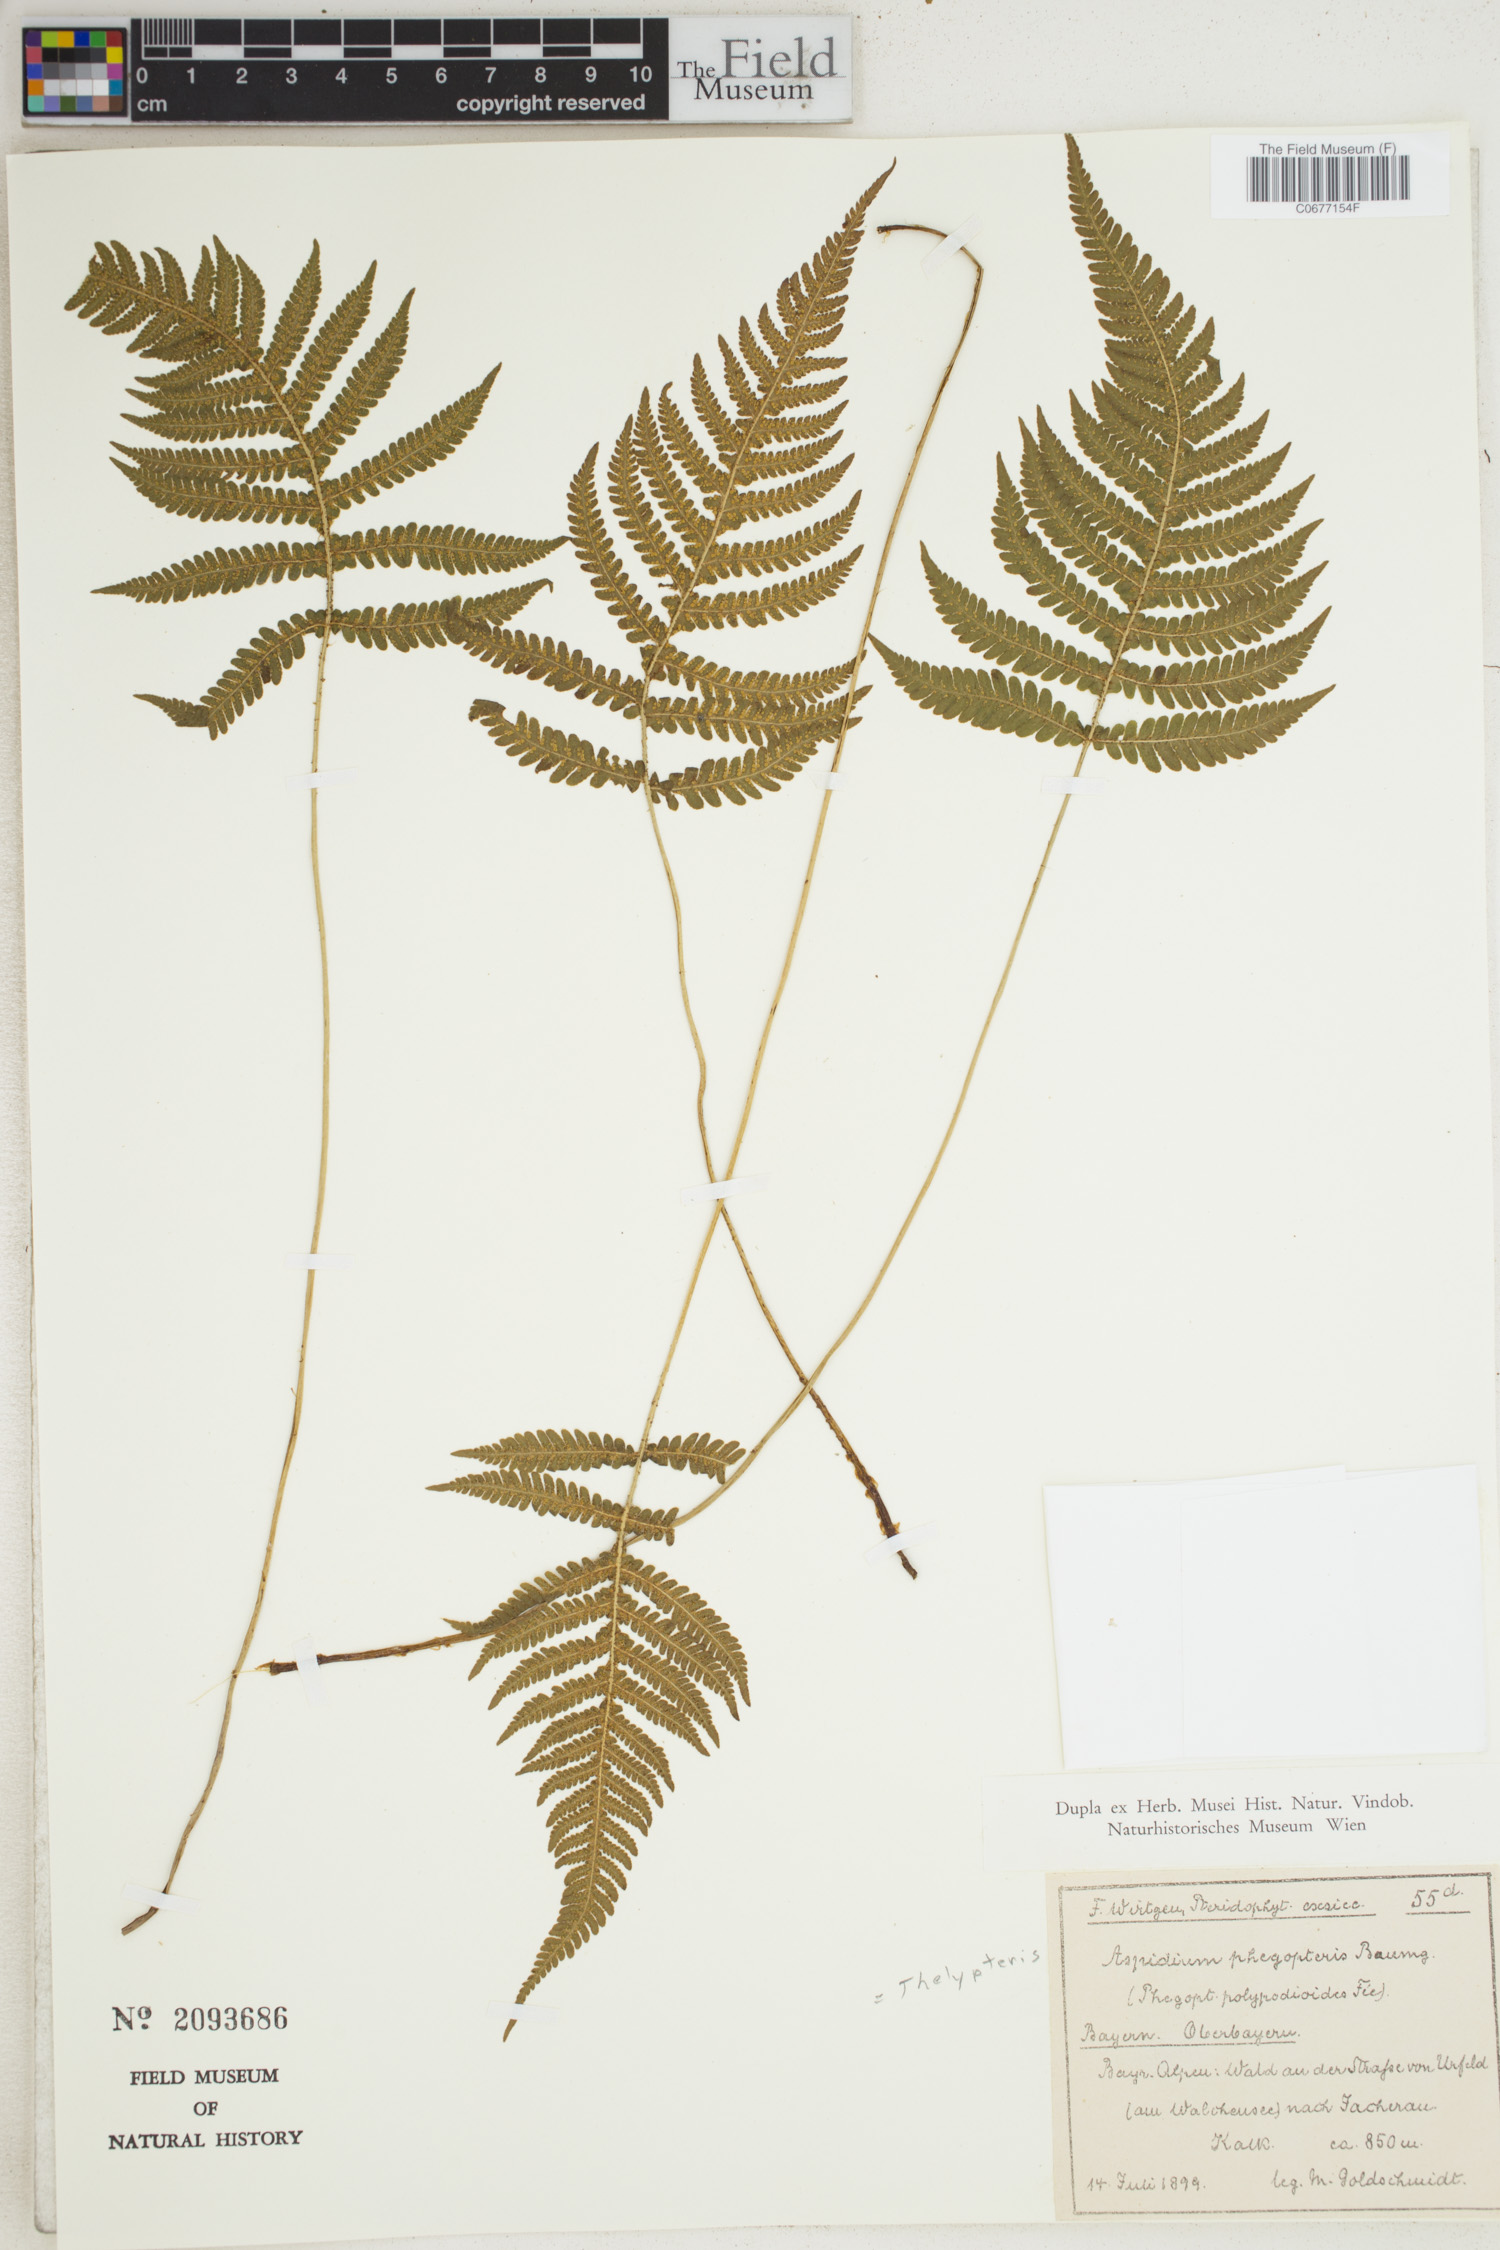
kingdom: Plantae
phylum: Tracheophyta
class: Polypodiopsida
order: Polypodiales
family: Thelypteridaceae
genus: Phegopteris
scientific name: Phegopteris connectilis
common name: Beech fern
